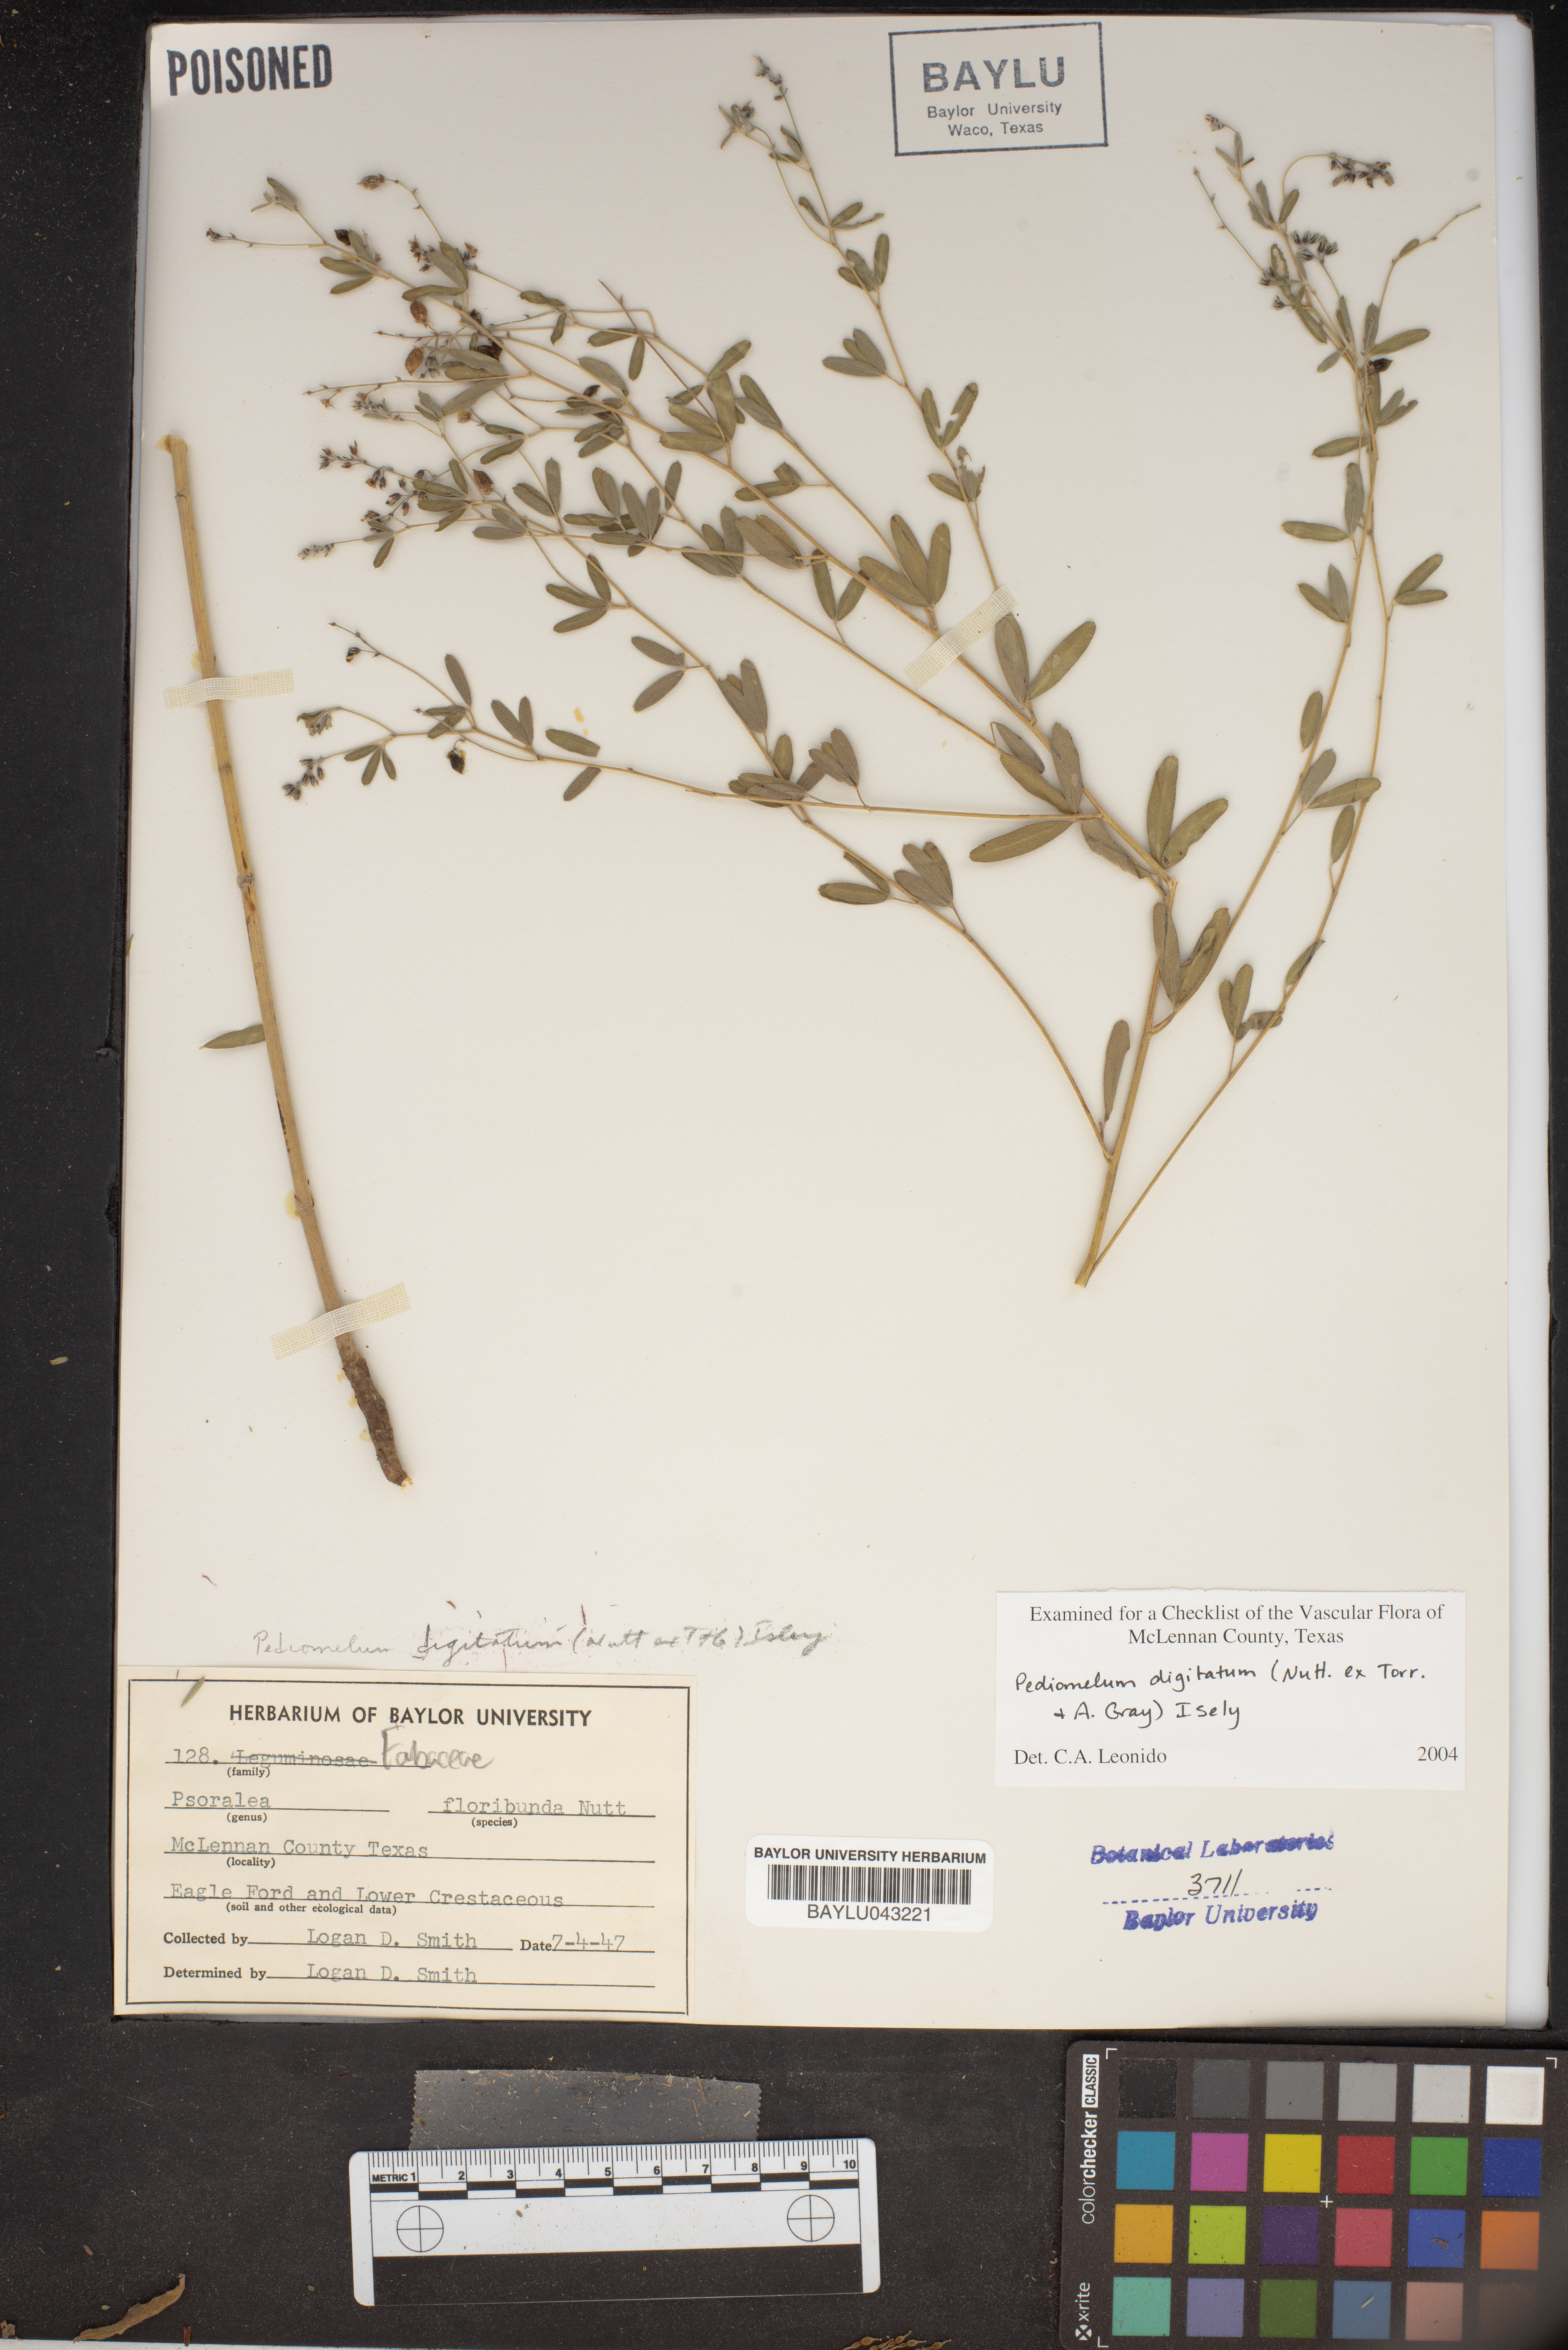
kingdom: Plantae
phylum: Tracheophyta
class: Magnoliopsida
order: Fabales
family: Fabaceae
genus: Pediomelum
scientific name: Pediomelum tenuiflorum
